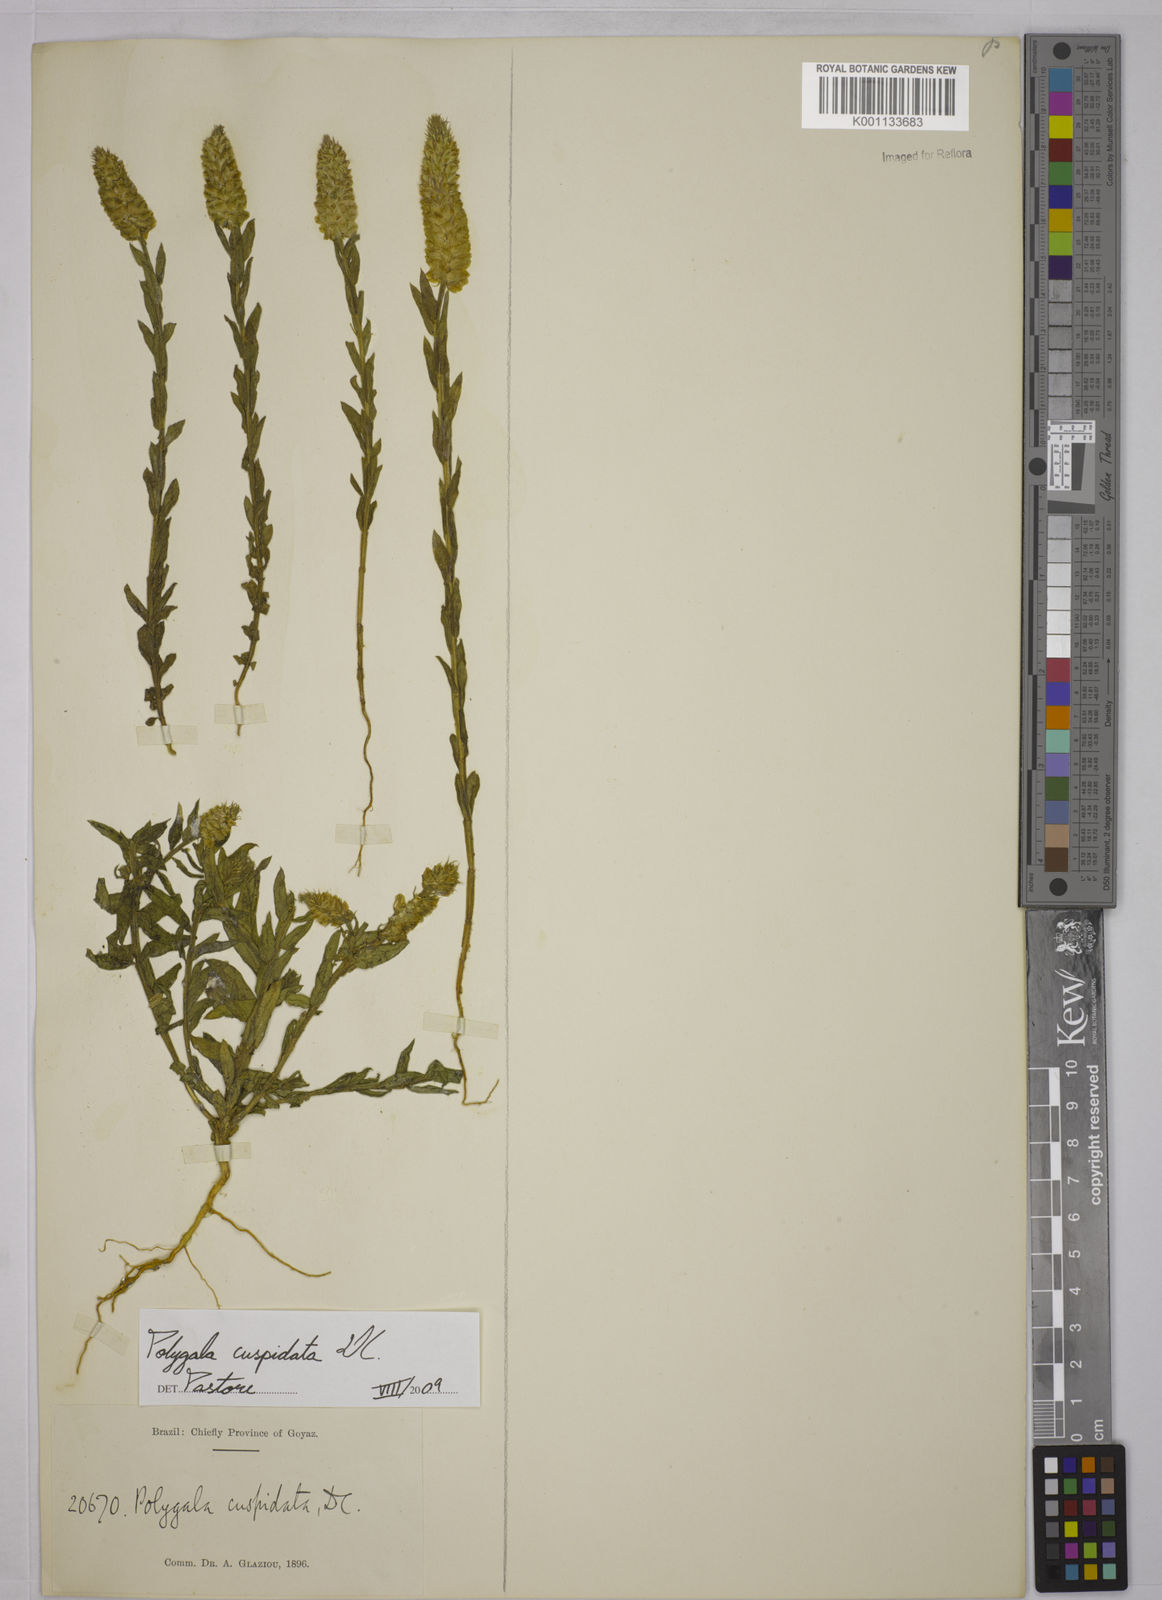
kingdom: Plantae
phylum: Tracheophyta
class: Magnoliopsida
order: Fabales
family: Polygalaceae
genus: Polygala
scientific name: Polygala cuspidata
